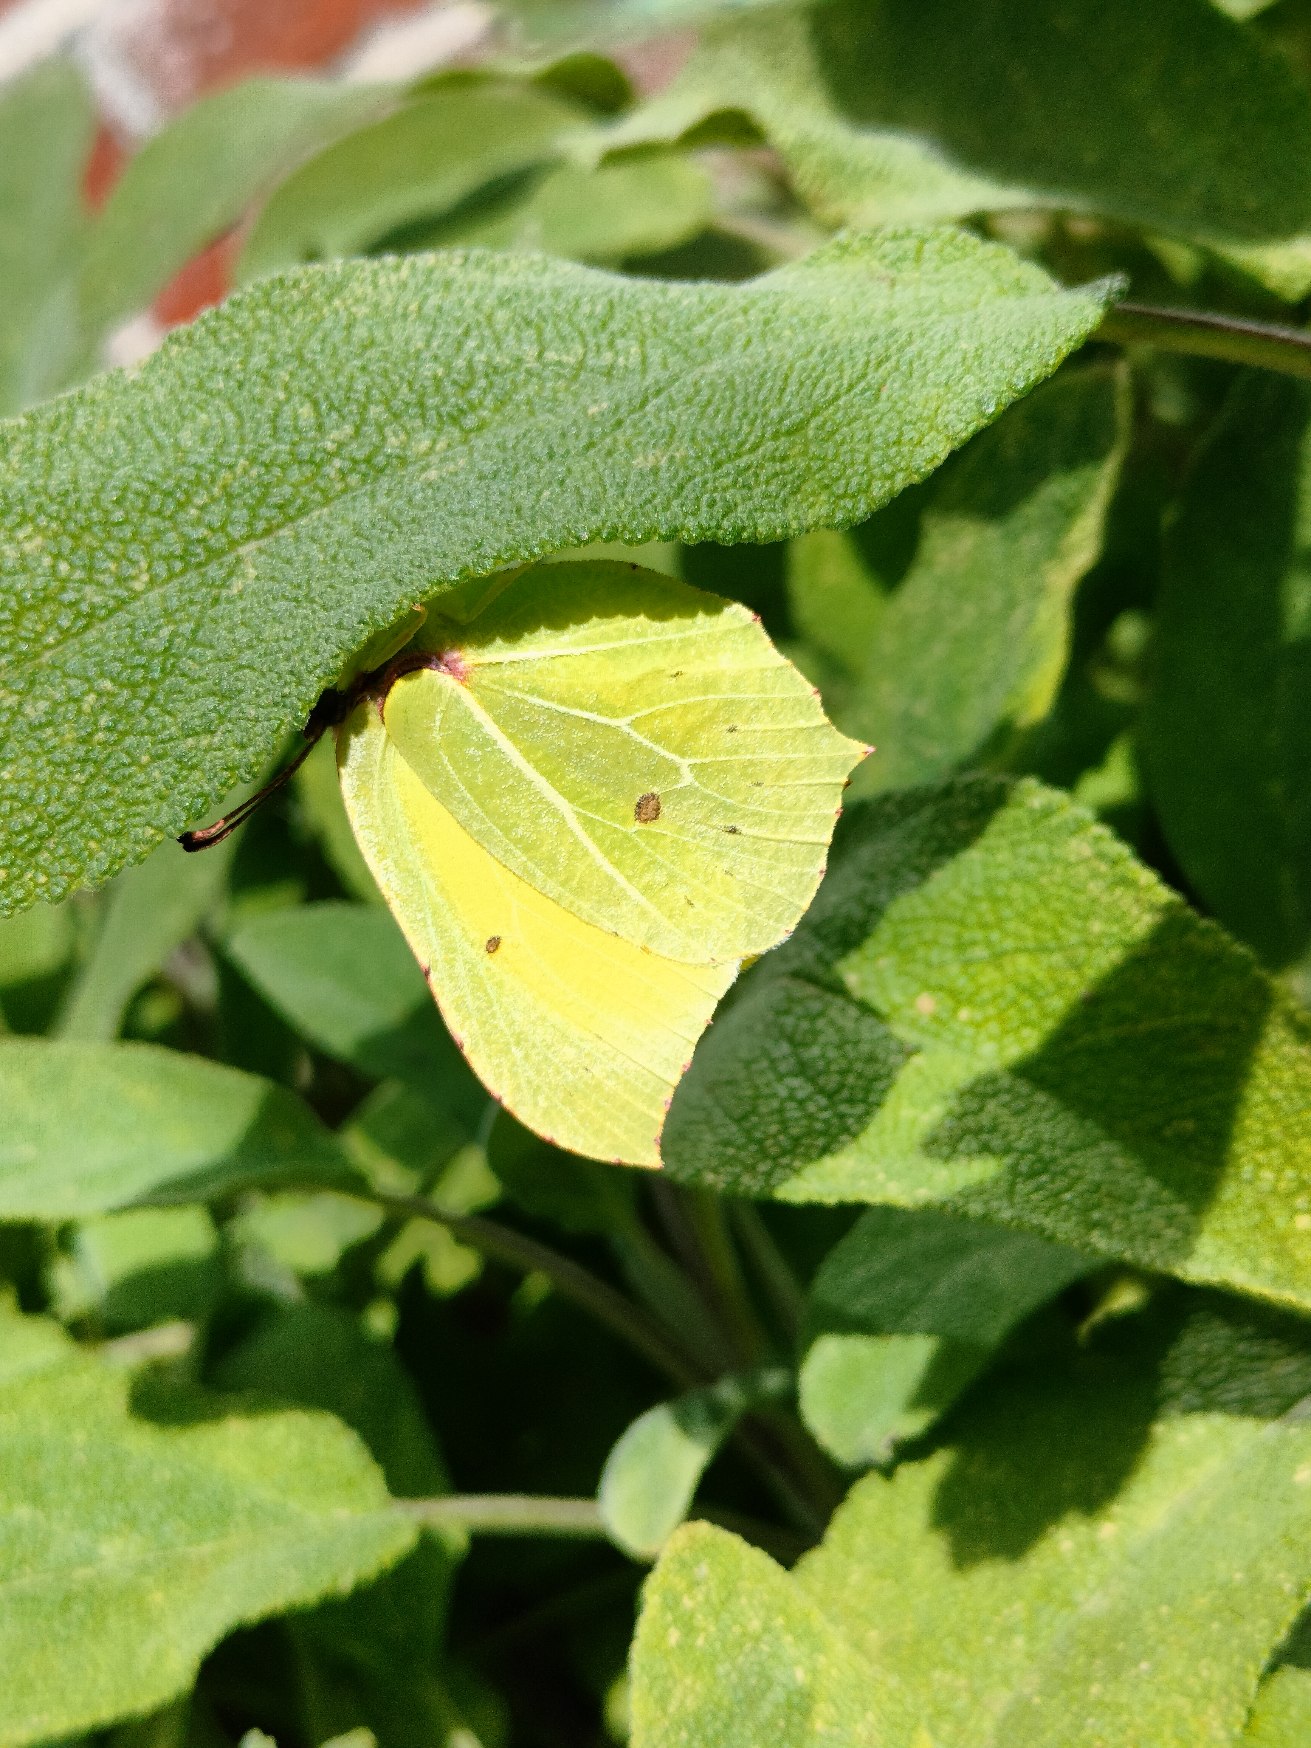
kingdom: Animalia
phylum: Arthropoda
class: Insecta
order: Lepidoptera
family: Pieridae
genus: Gonepteryx
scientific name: Gonepteryx rhamni
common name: Citronsommerfugl
